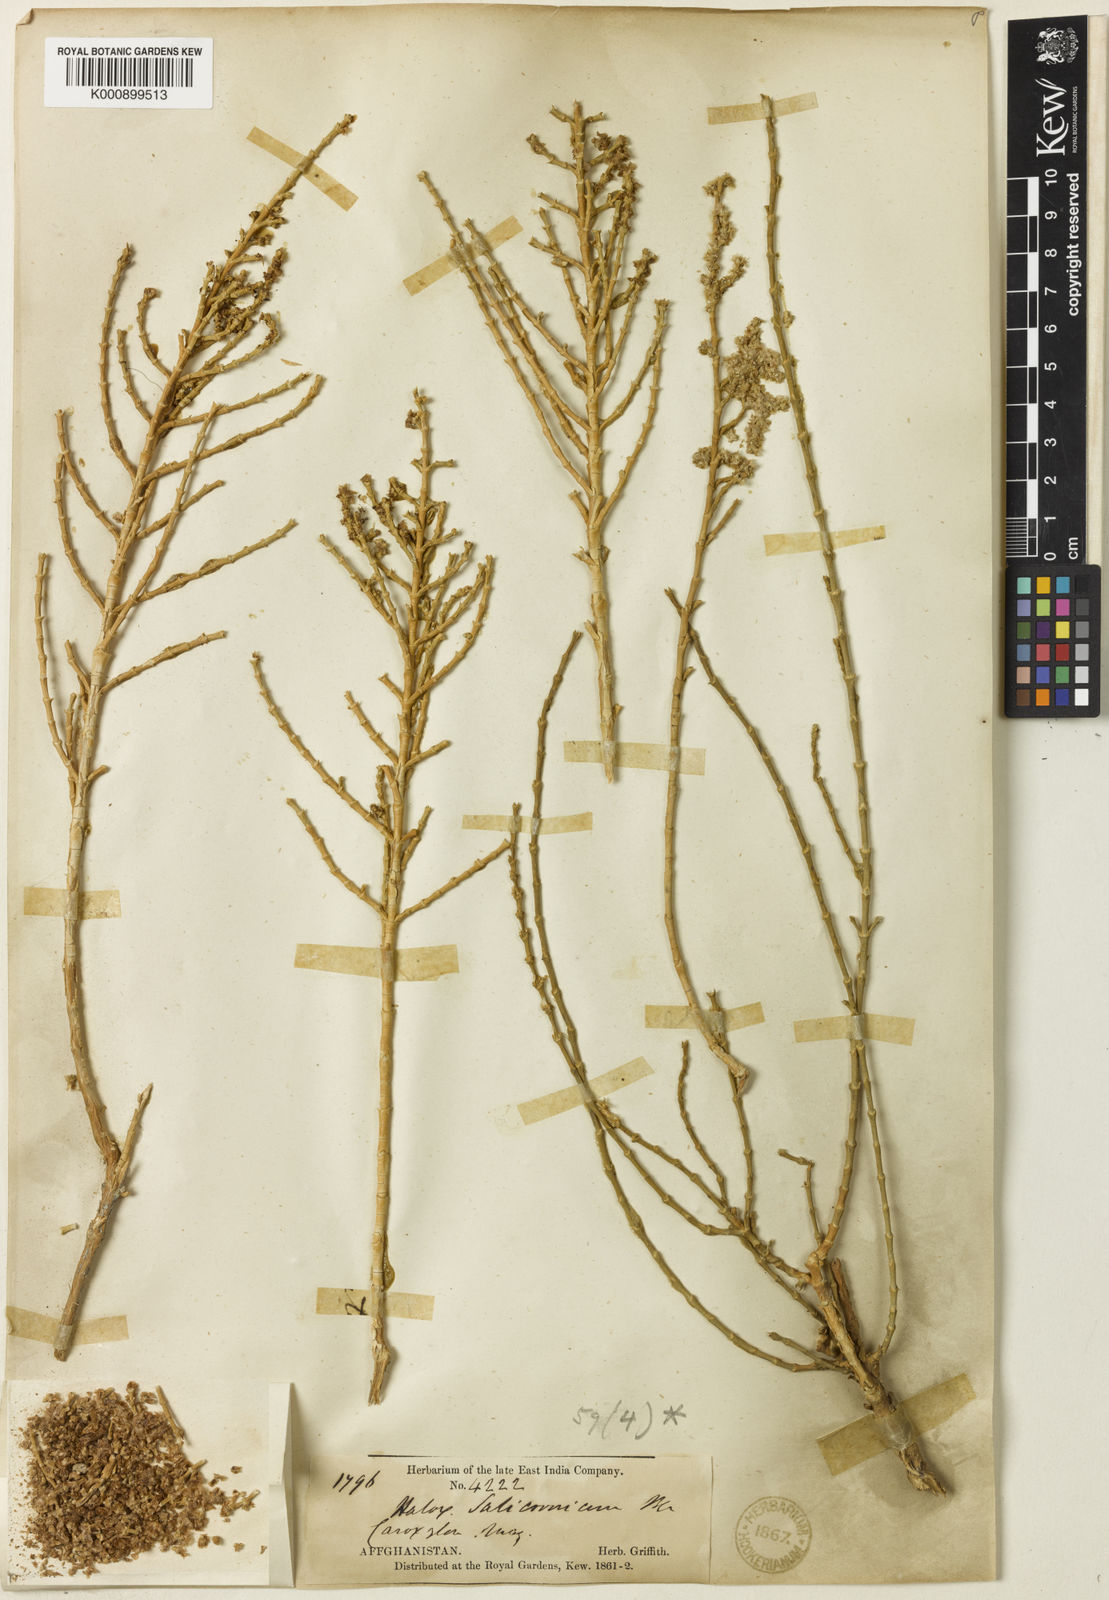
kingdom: Plantae
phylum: Tracheophyta
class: Magnoliopsida
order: Caryophyllales
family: Amaranthaceae
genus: Haloxylon
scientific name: Haloxylon salicornicum
